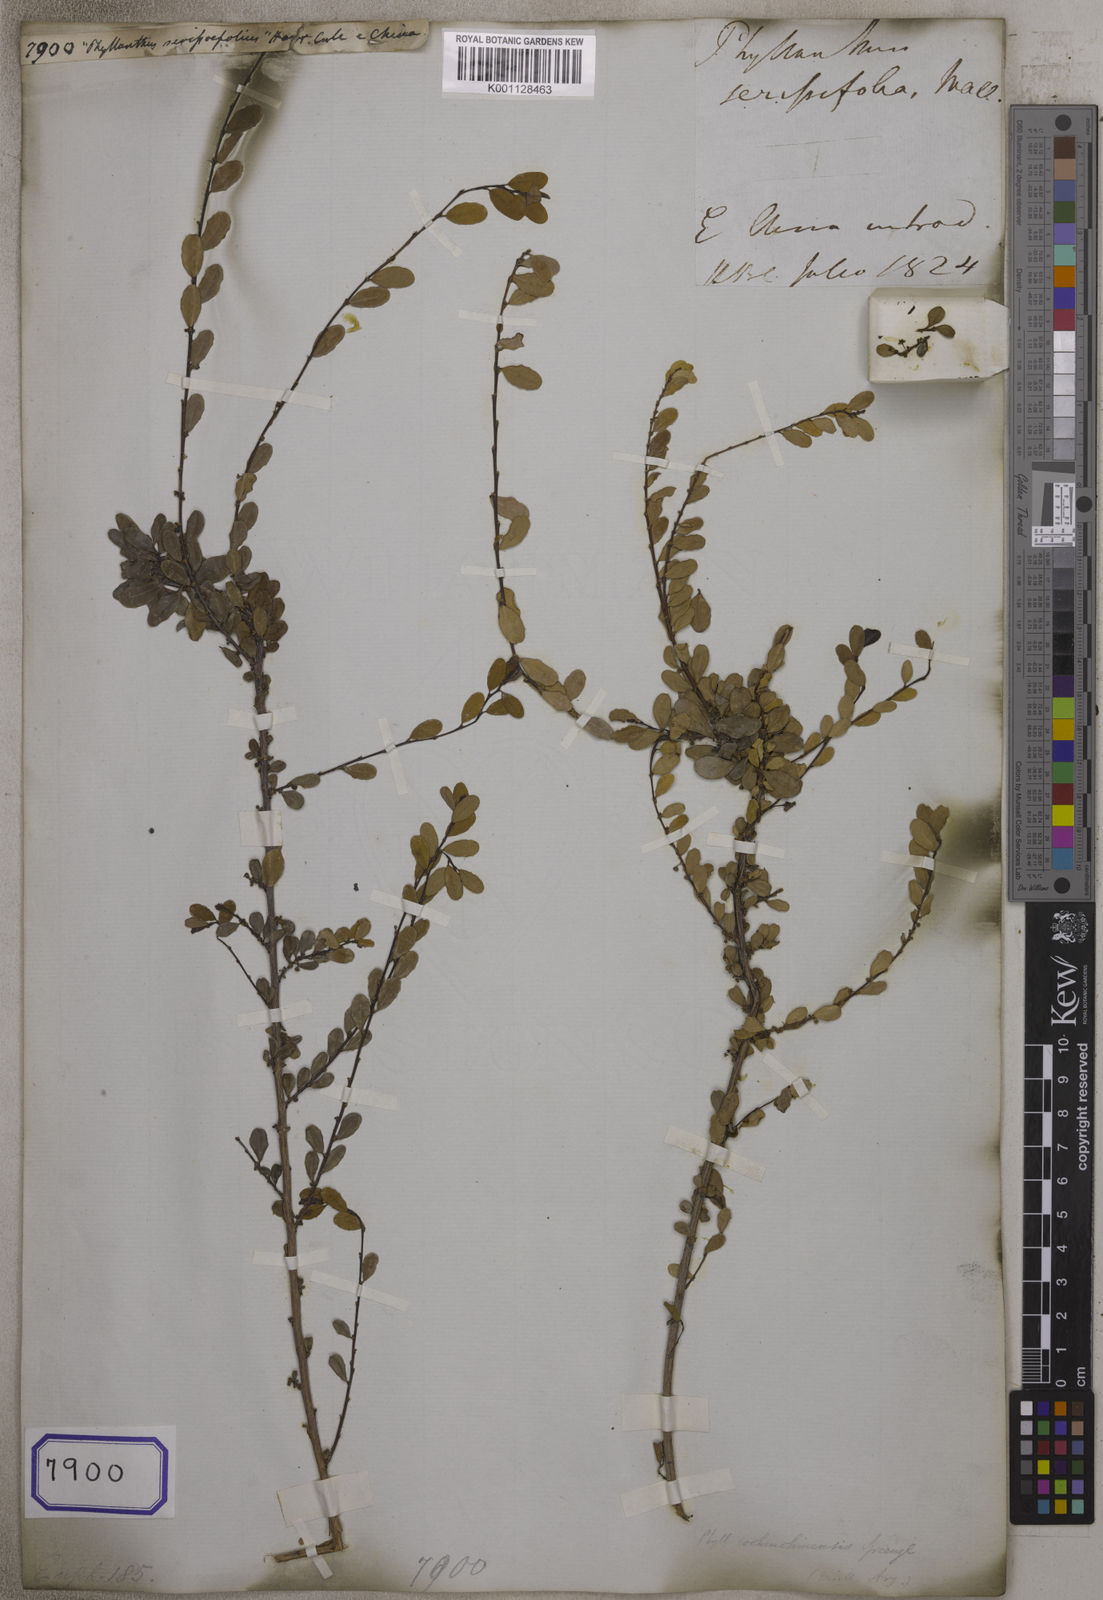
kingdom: Plantae
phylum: Tracheophyta
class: Magnoliopsida
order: Malpighiales
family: Euphorbiaceae
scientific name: Euphorbiaceae
